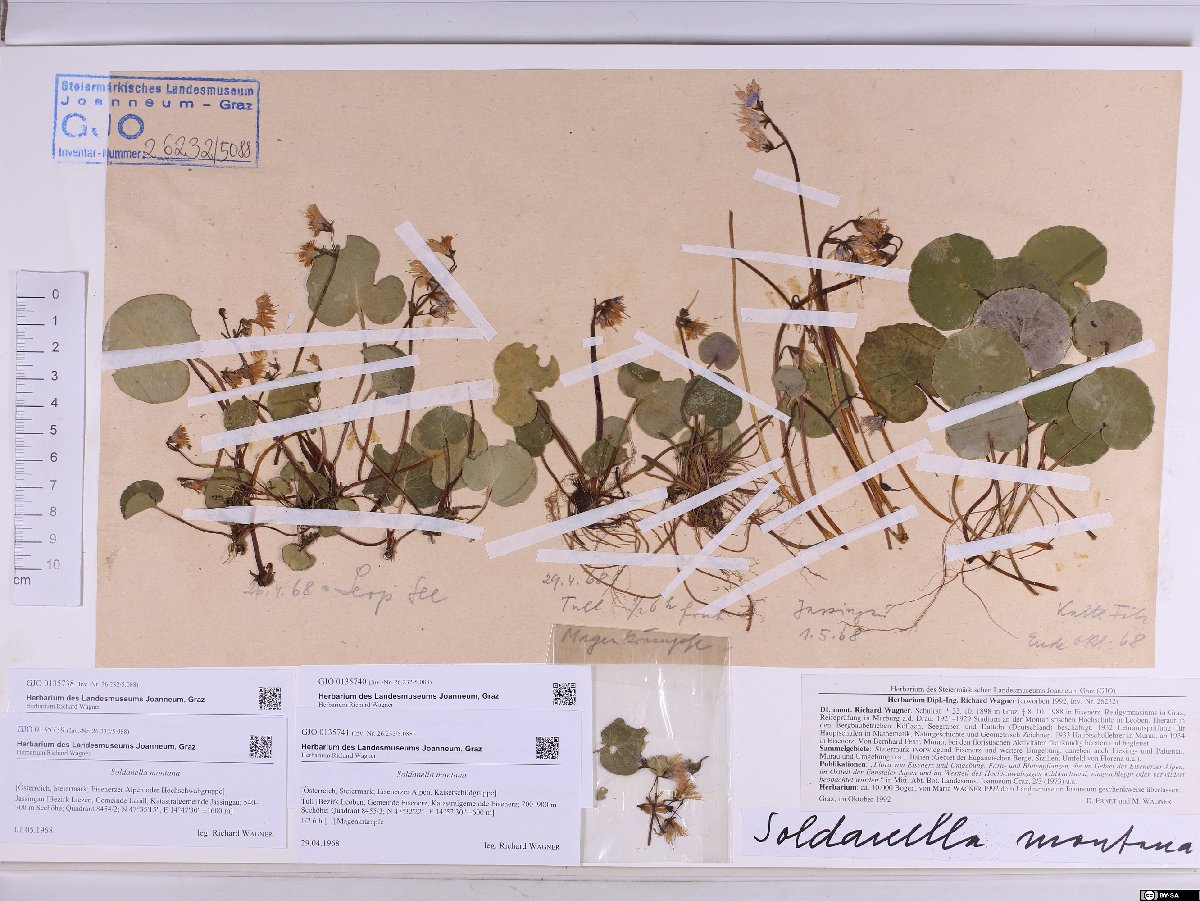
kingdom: Plantae
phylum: Tracheophyta
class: Magnoliopsida
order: Ericales
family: Primulaceae
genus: Soldanella
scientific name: Soldanella montana
